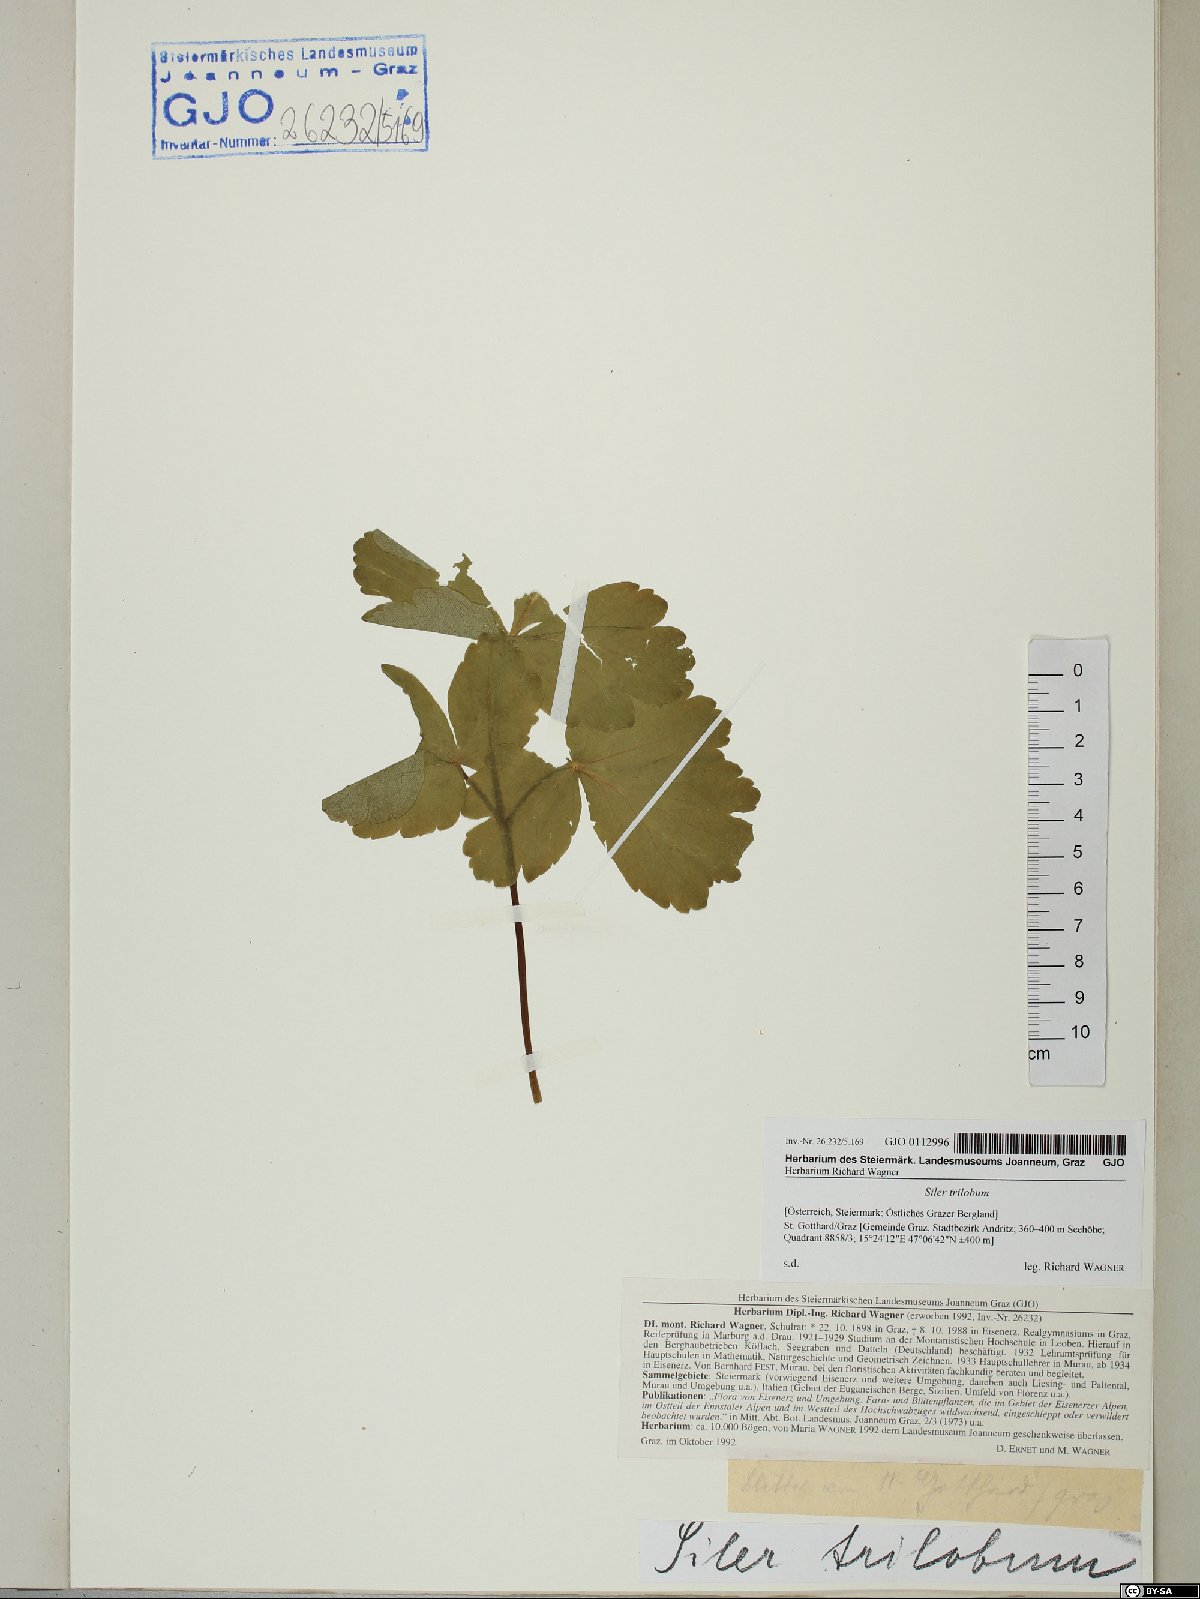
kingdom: Plantae
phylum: Tracheophyta
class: Magnoliopsida
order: Apiales
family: Apiaceae
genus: Laser
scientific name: Laser trilobum
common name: Laser
